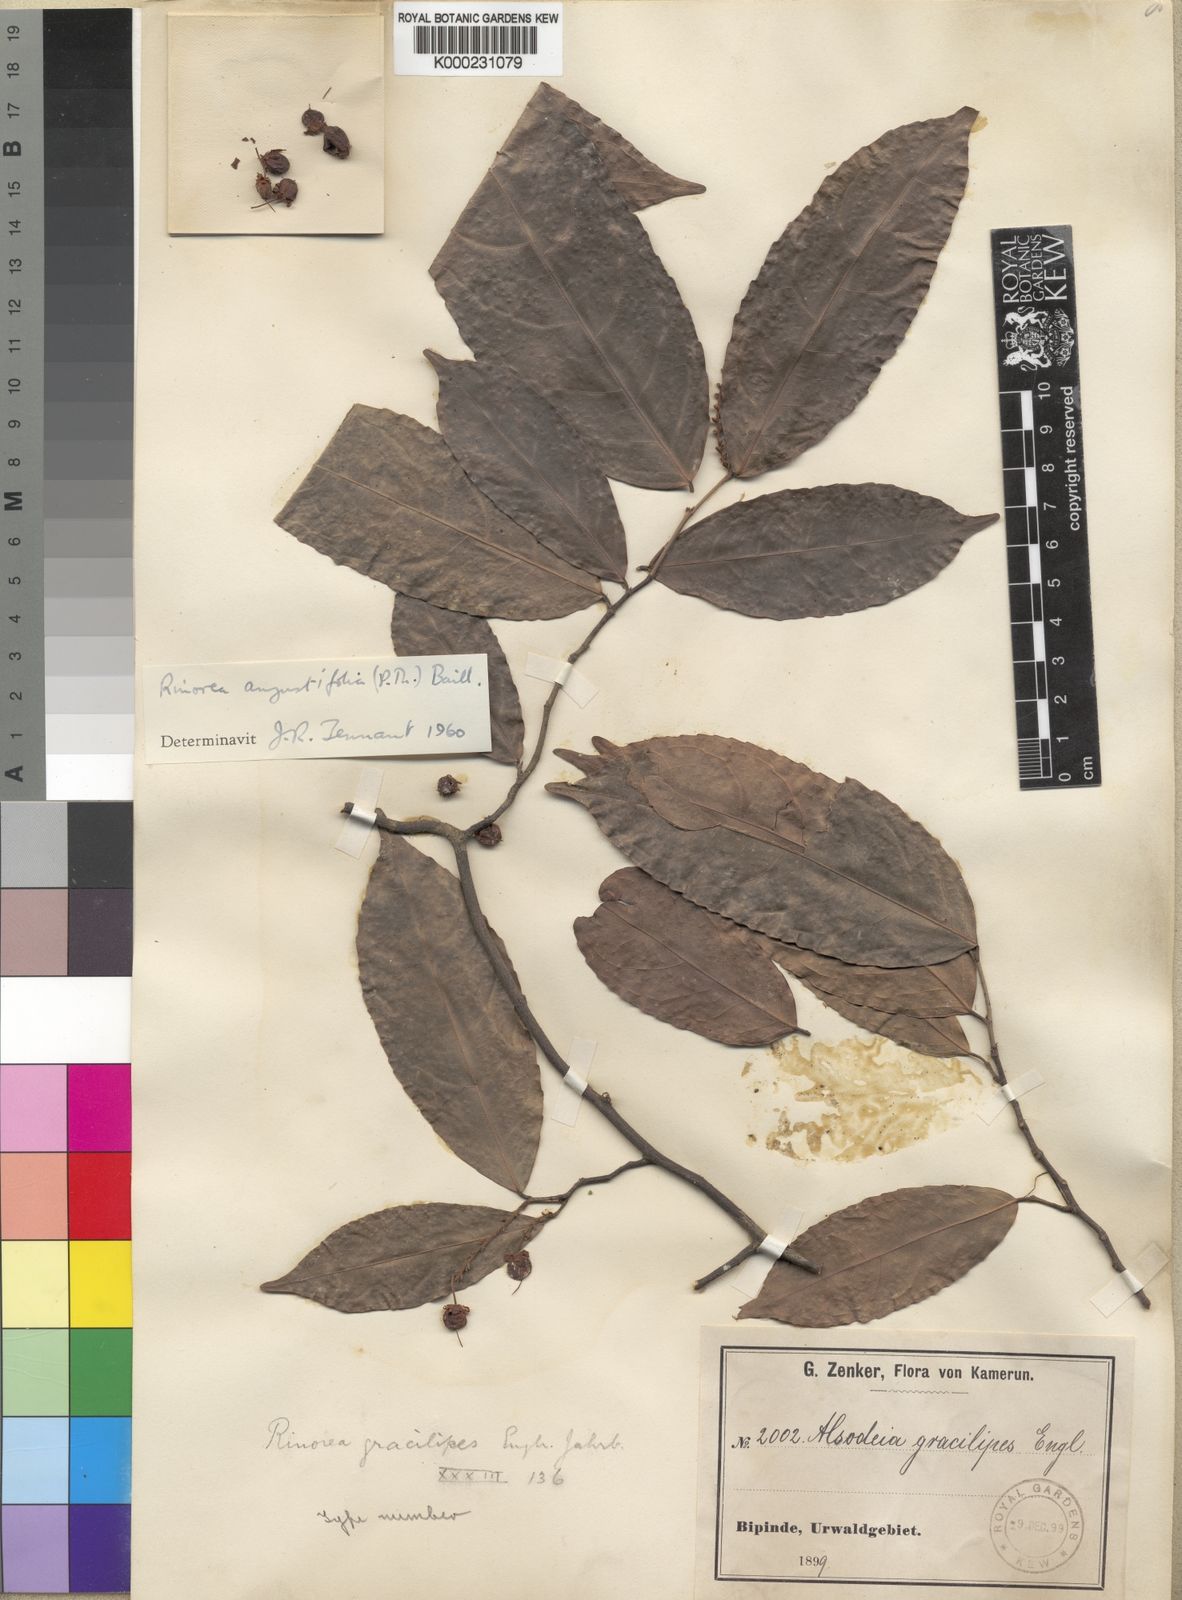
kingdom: Plantae
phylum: Tracheophyta
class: Magnoliopsida
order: Malpighiales
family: Violaceae
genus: Rinorea
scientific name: Rinorea angustifolia
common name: White violet-bush
